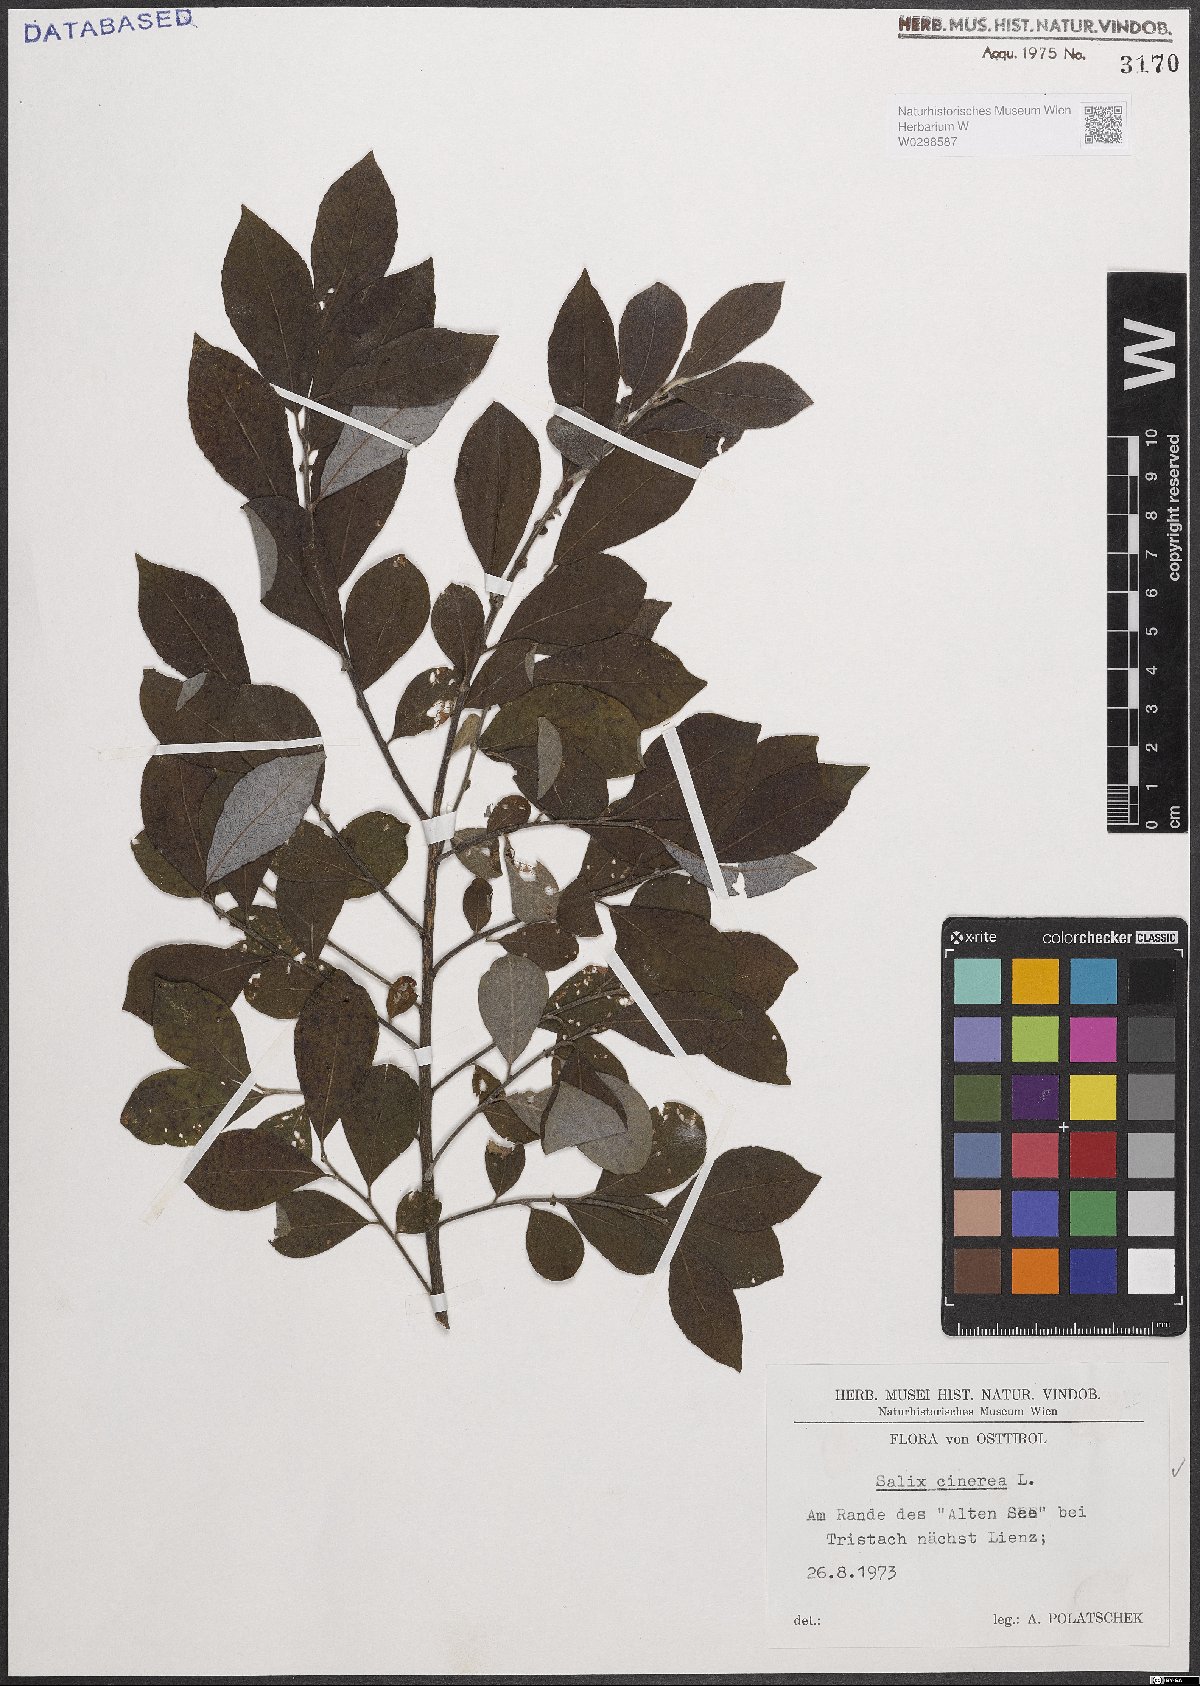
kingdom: Plantae
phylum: Tracheophyta
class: Magnoliopsida
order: Malpighiales
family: Salicaceae
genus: Salix
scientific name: Salix cinerea
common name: Common sallow
